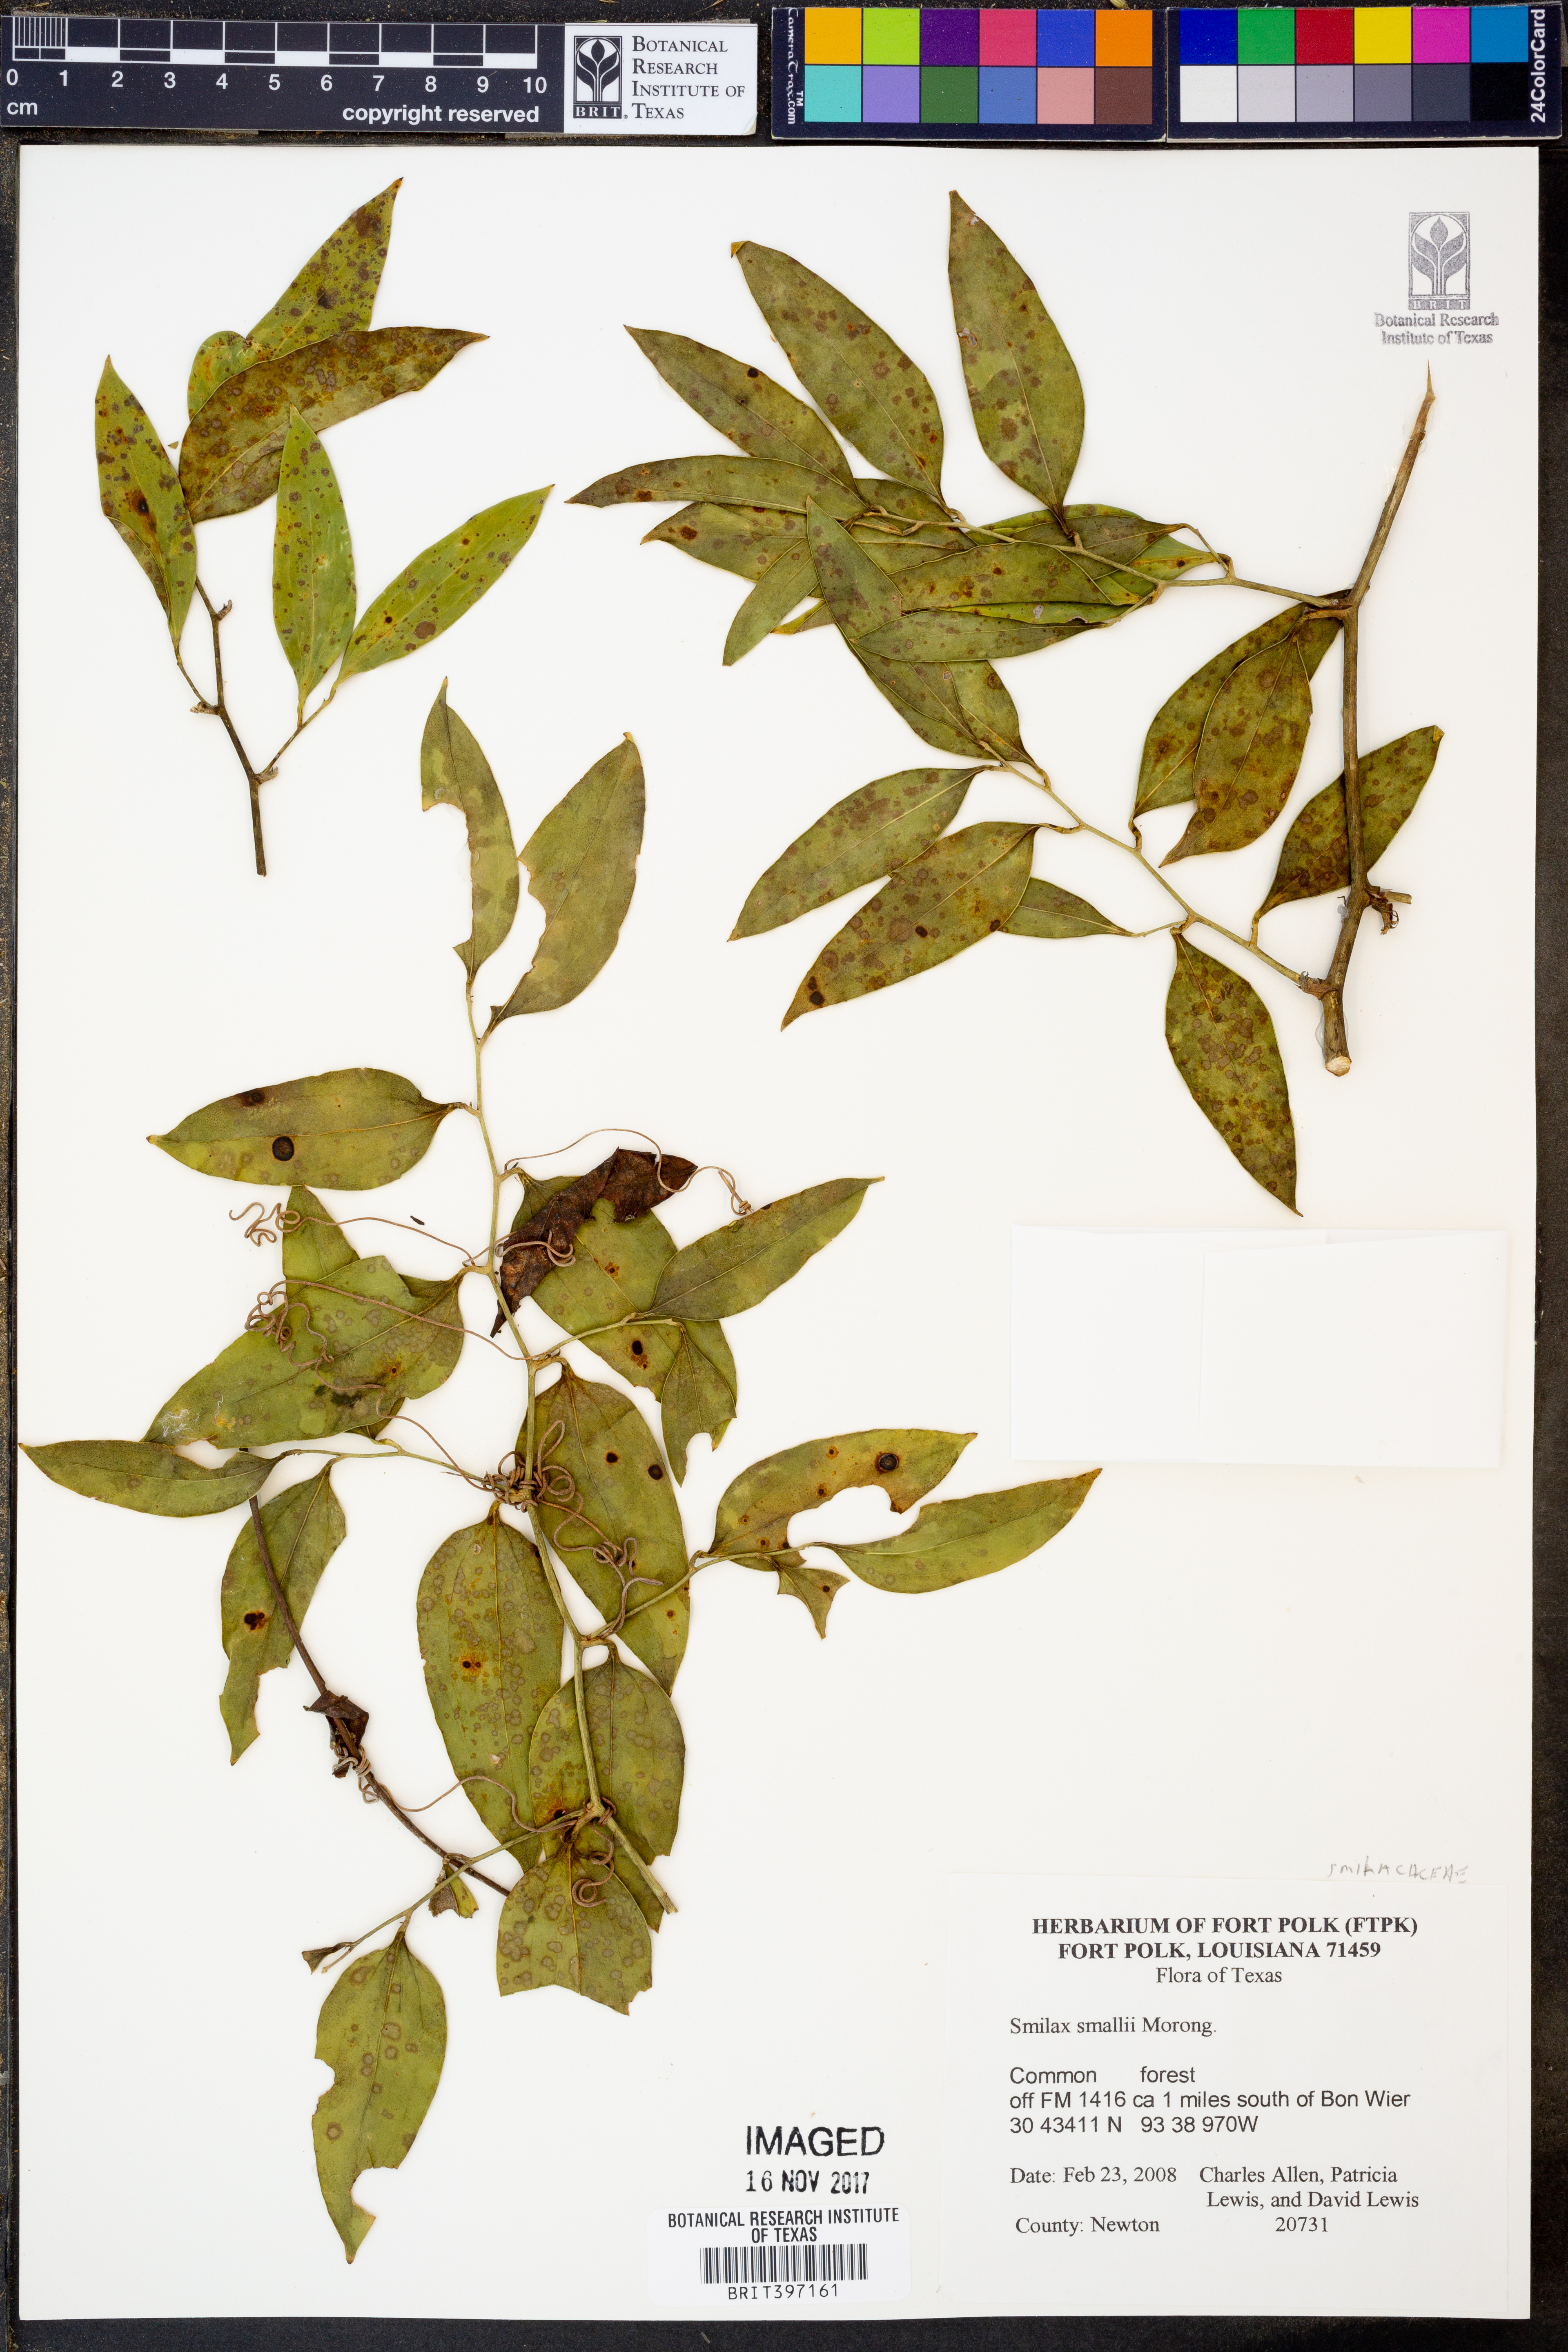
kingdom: Plantae
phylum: Tracheophyta
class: Liliopsida
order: Liliales
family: Smilacaceae
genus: Smilax
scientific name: Smilax maritima
